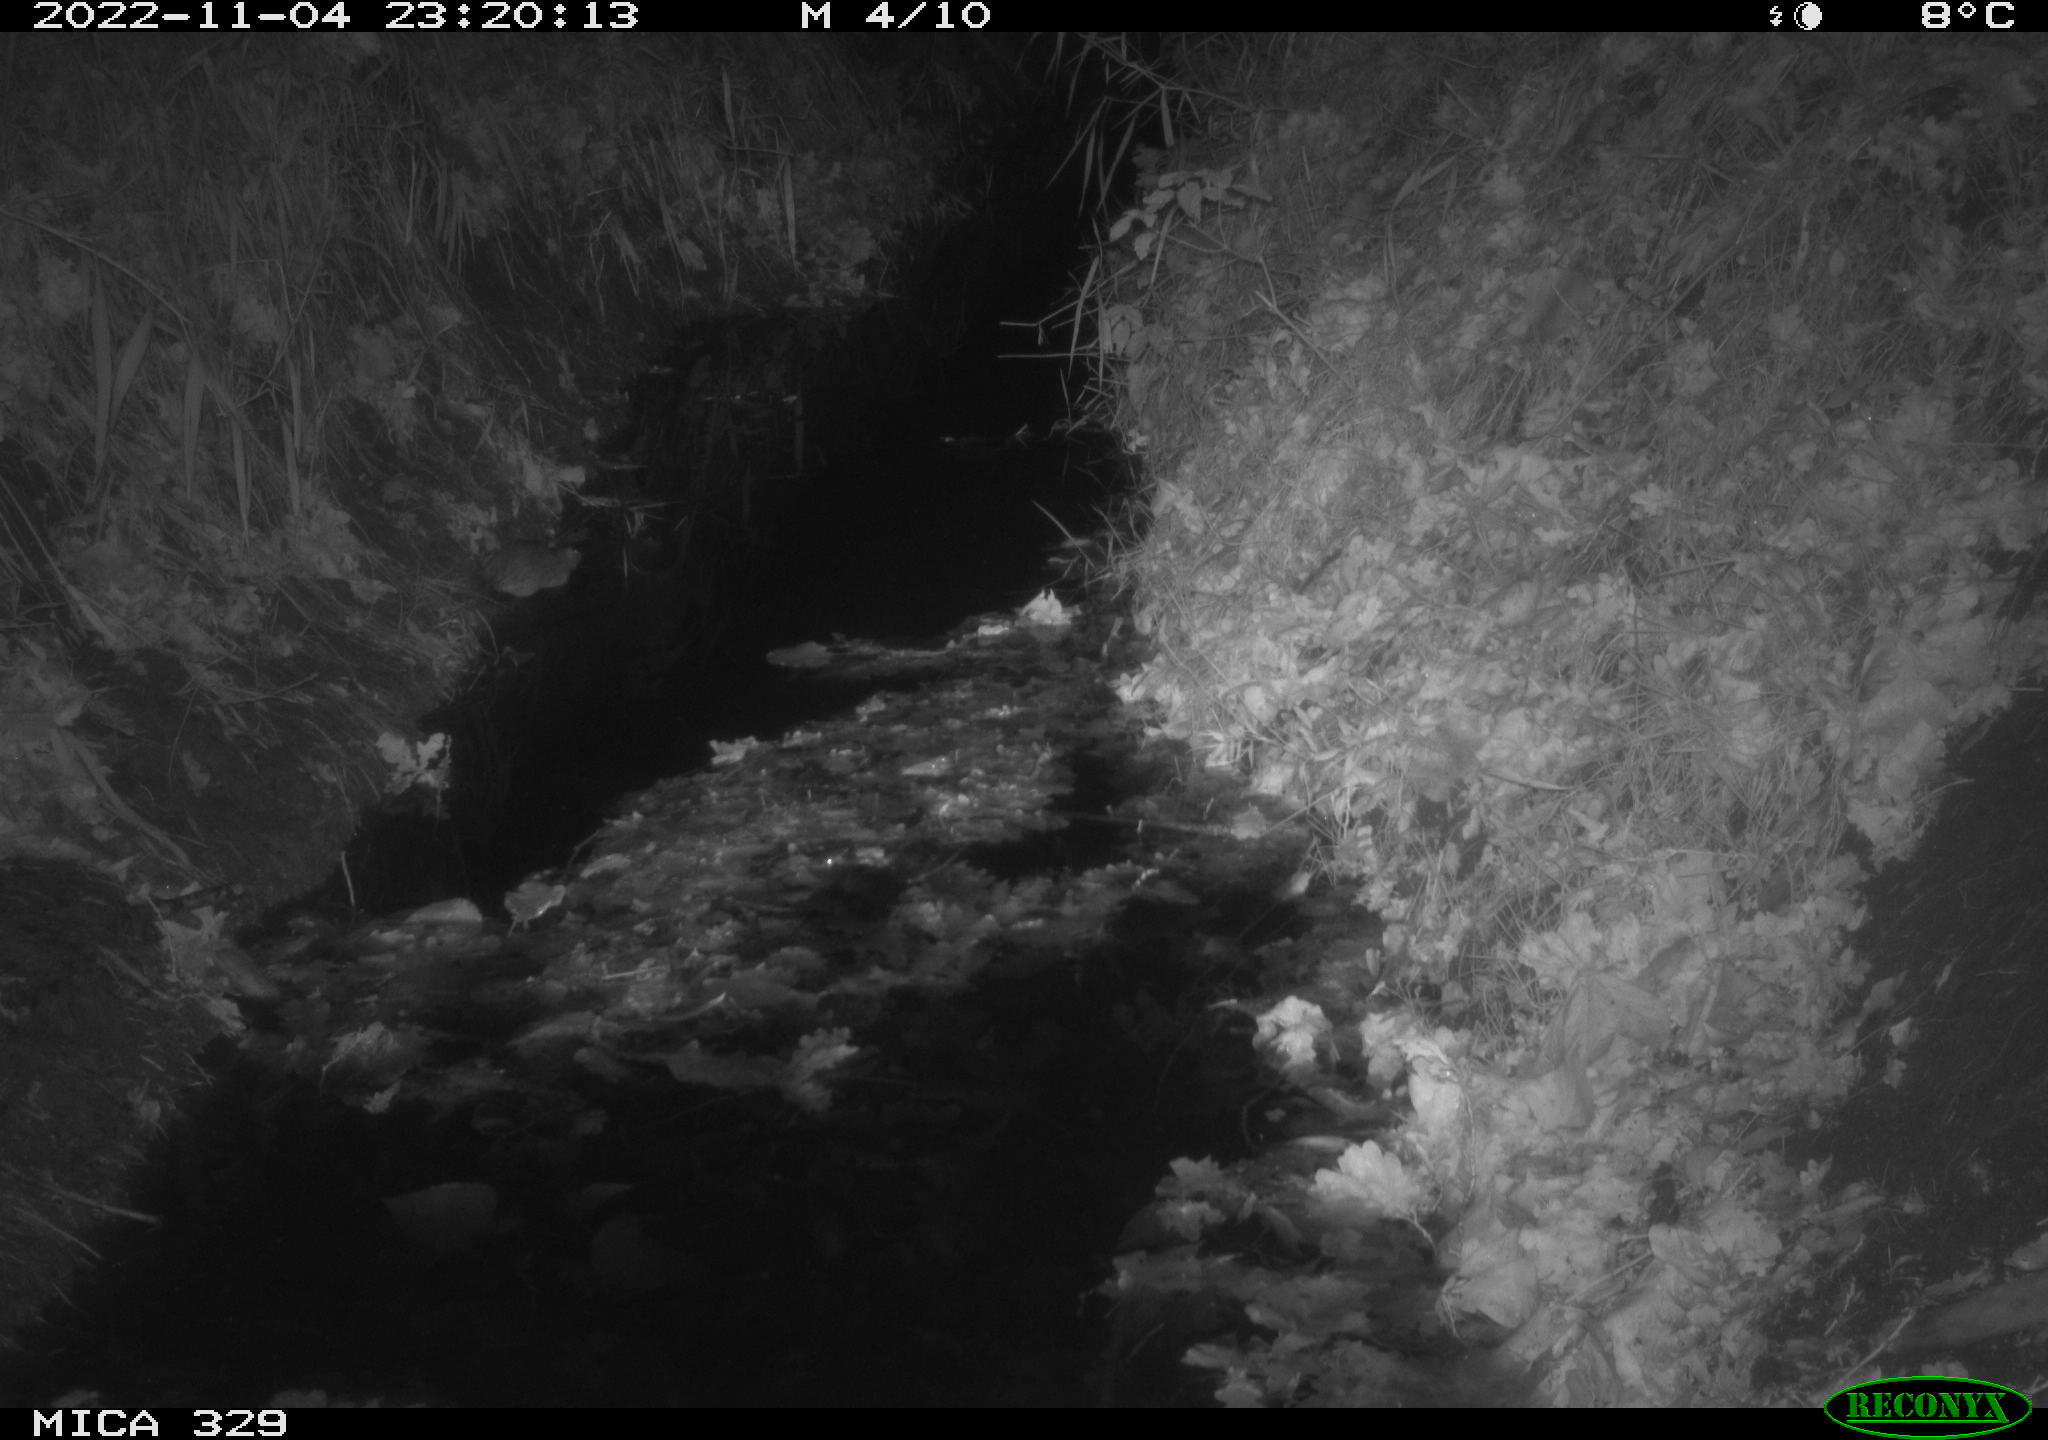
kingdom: Animalia
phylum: Chordata
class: Mammalia
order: Rodentia
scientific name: Rodentia
